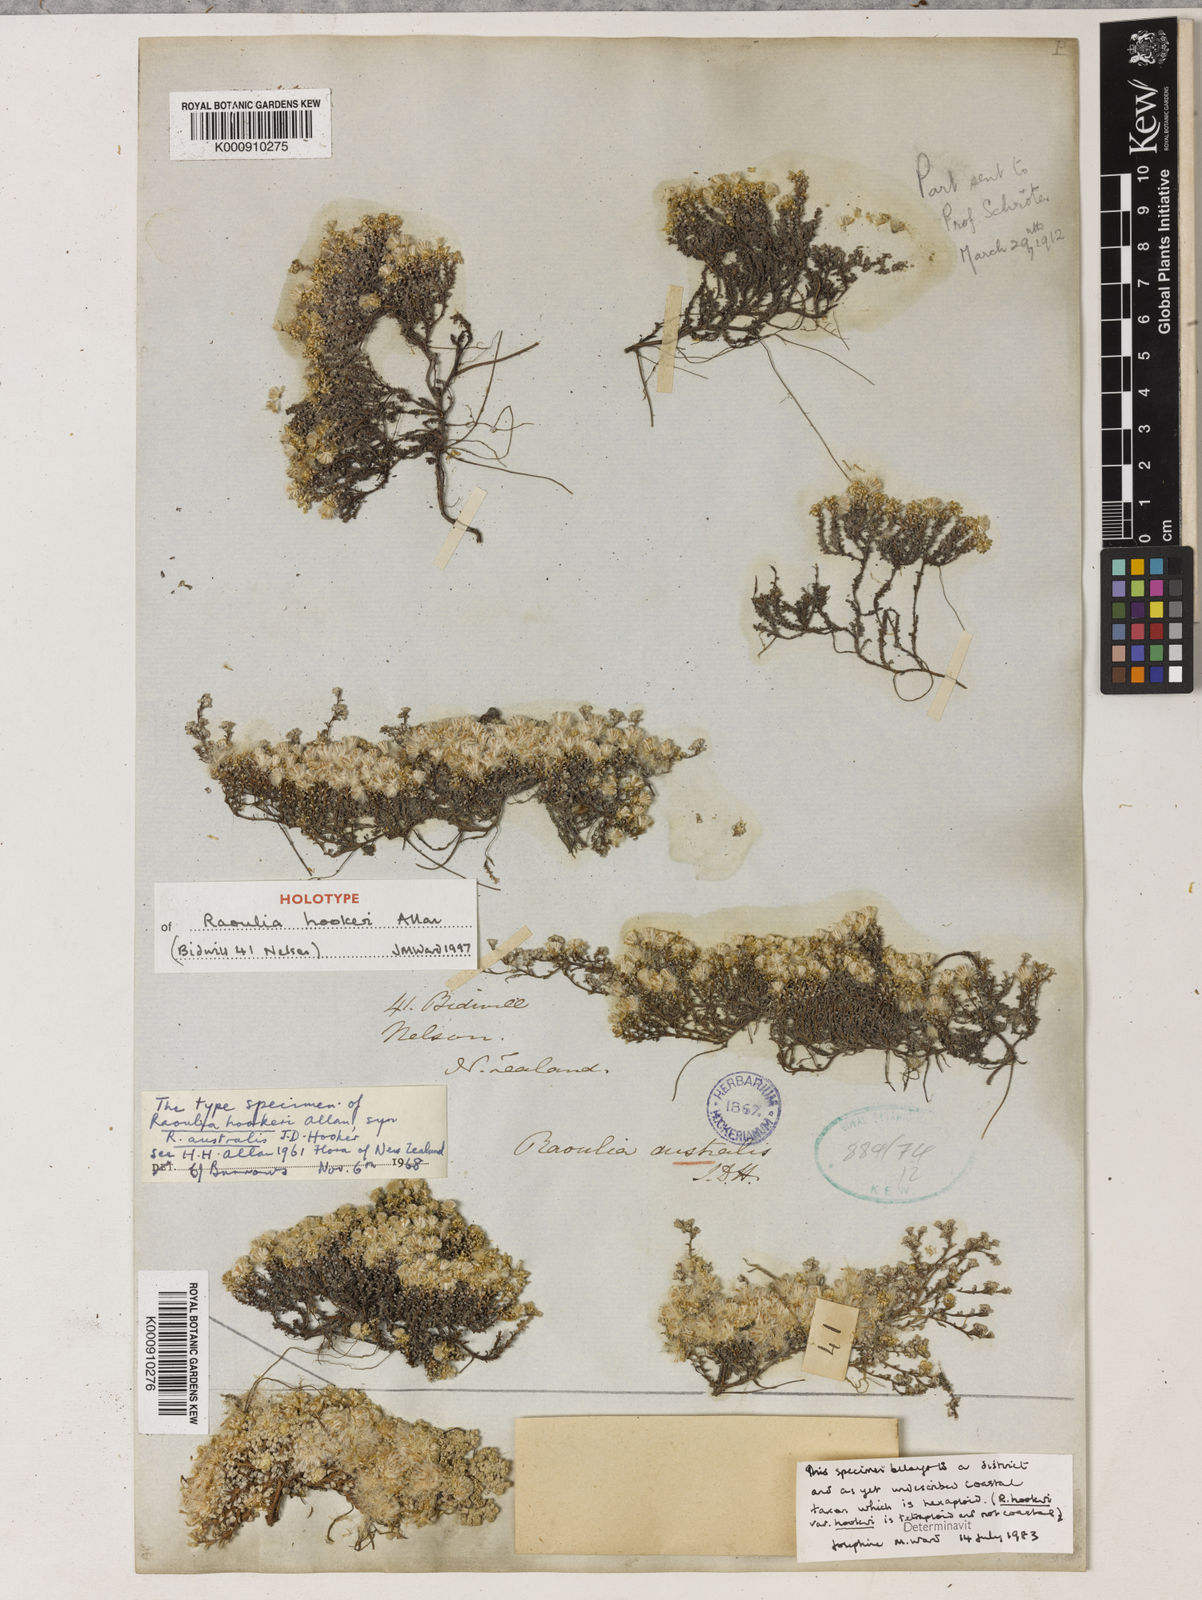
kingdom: Plantae
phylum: Tracheophyta
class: Magnoliopsida
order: Asterales
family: Asteraceae
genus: Raoulia
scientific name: Raoulia hookeri
